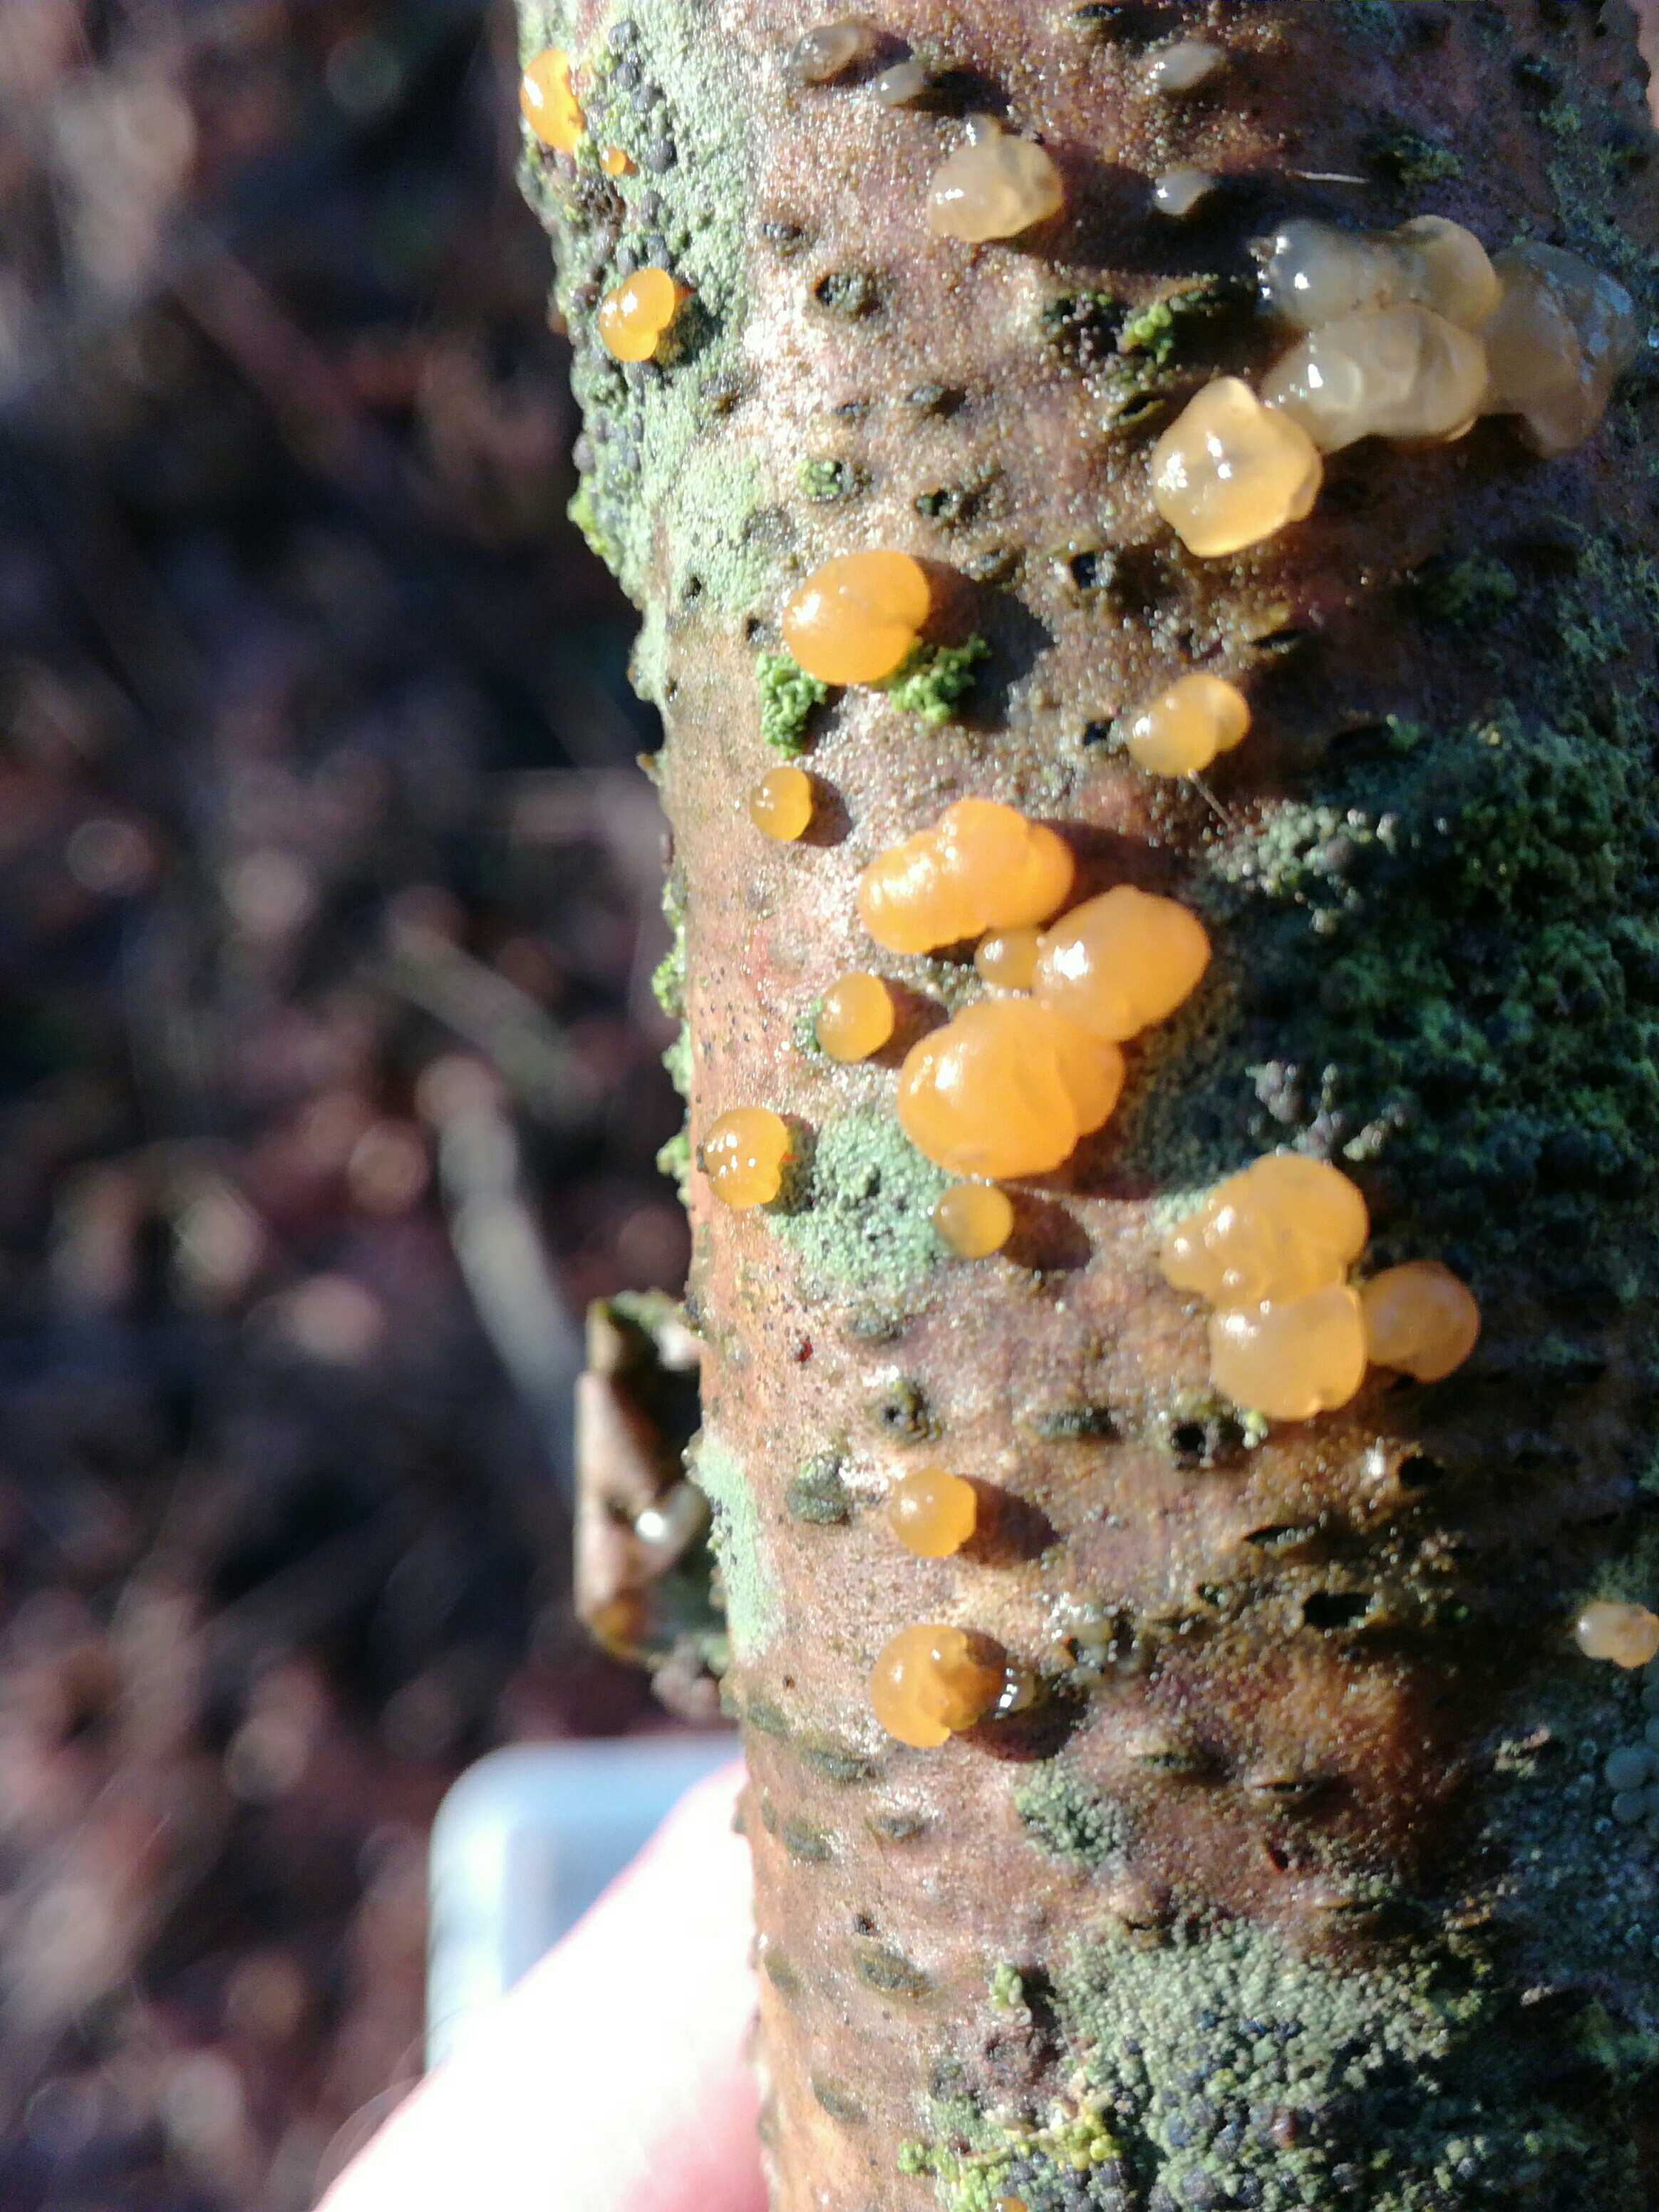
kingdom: Fungi
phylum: Basidiomycota
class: Dacrymycetes
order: Dacrymycetales
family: Dacrymycetaceae
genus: Dacrymyces
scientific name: Dacrymyces
